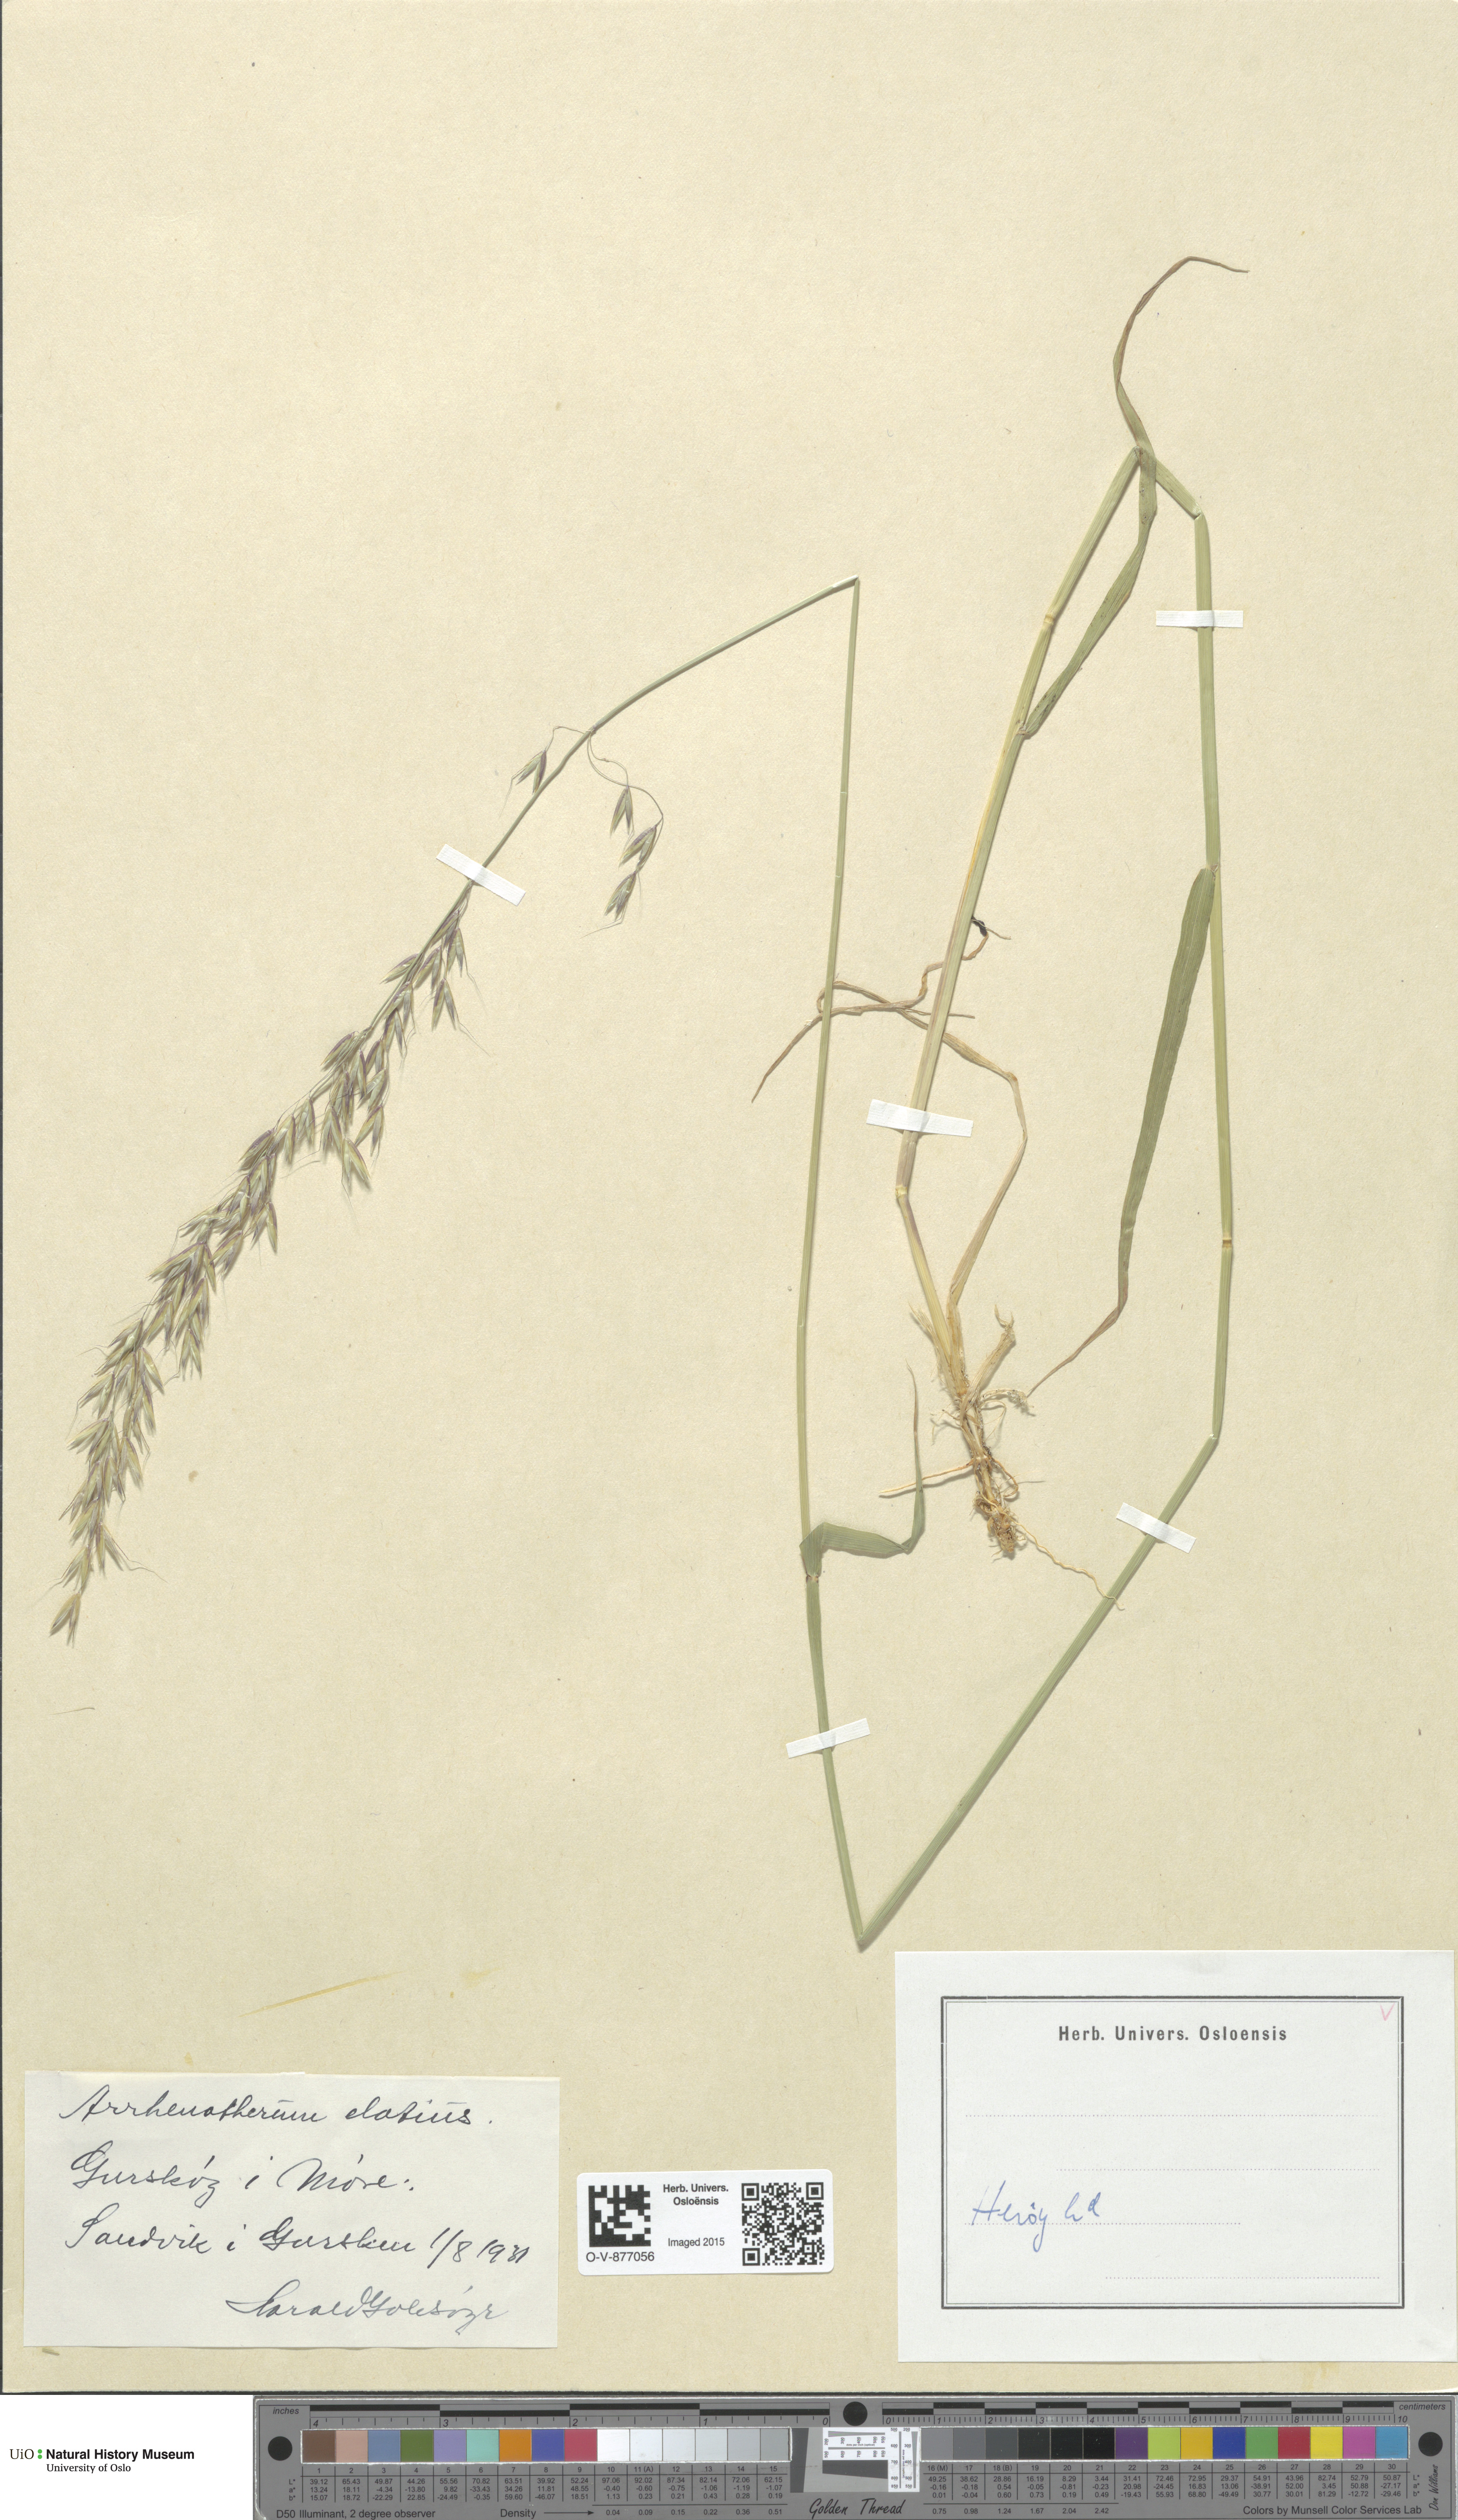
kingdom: Plantae
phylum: Tracheophyta
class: Liliopsida
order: Poales
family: Poaceae
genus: Arrhenatherum
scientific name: Arrhenatherum elatius
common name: Tall oatgrass
